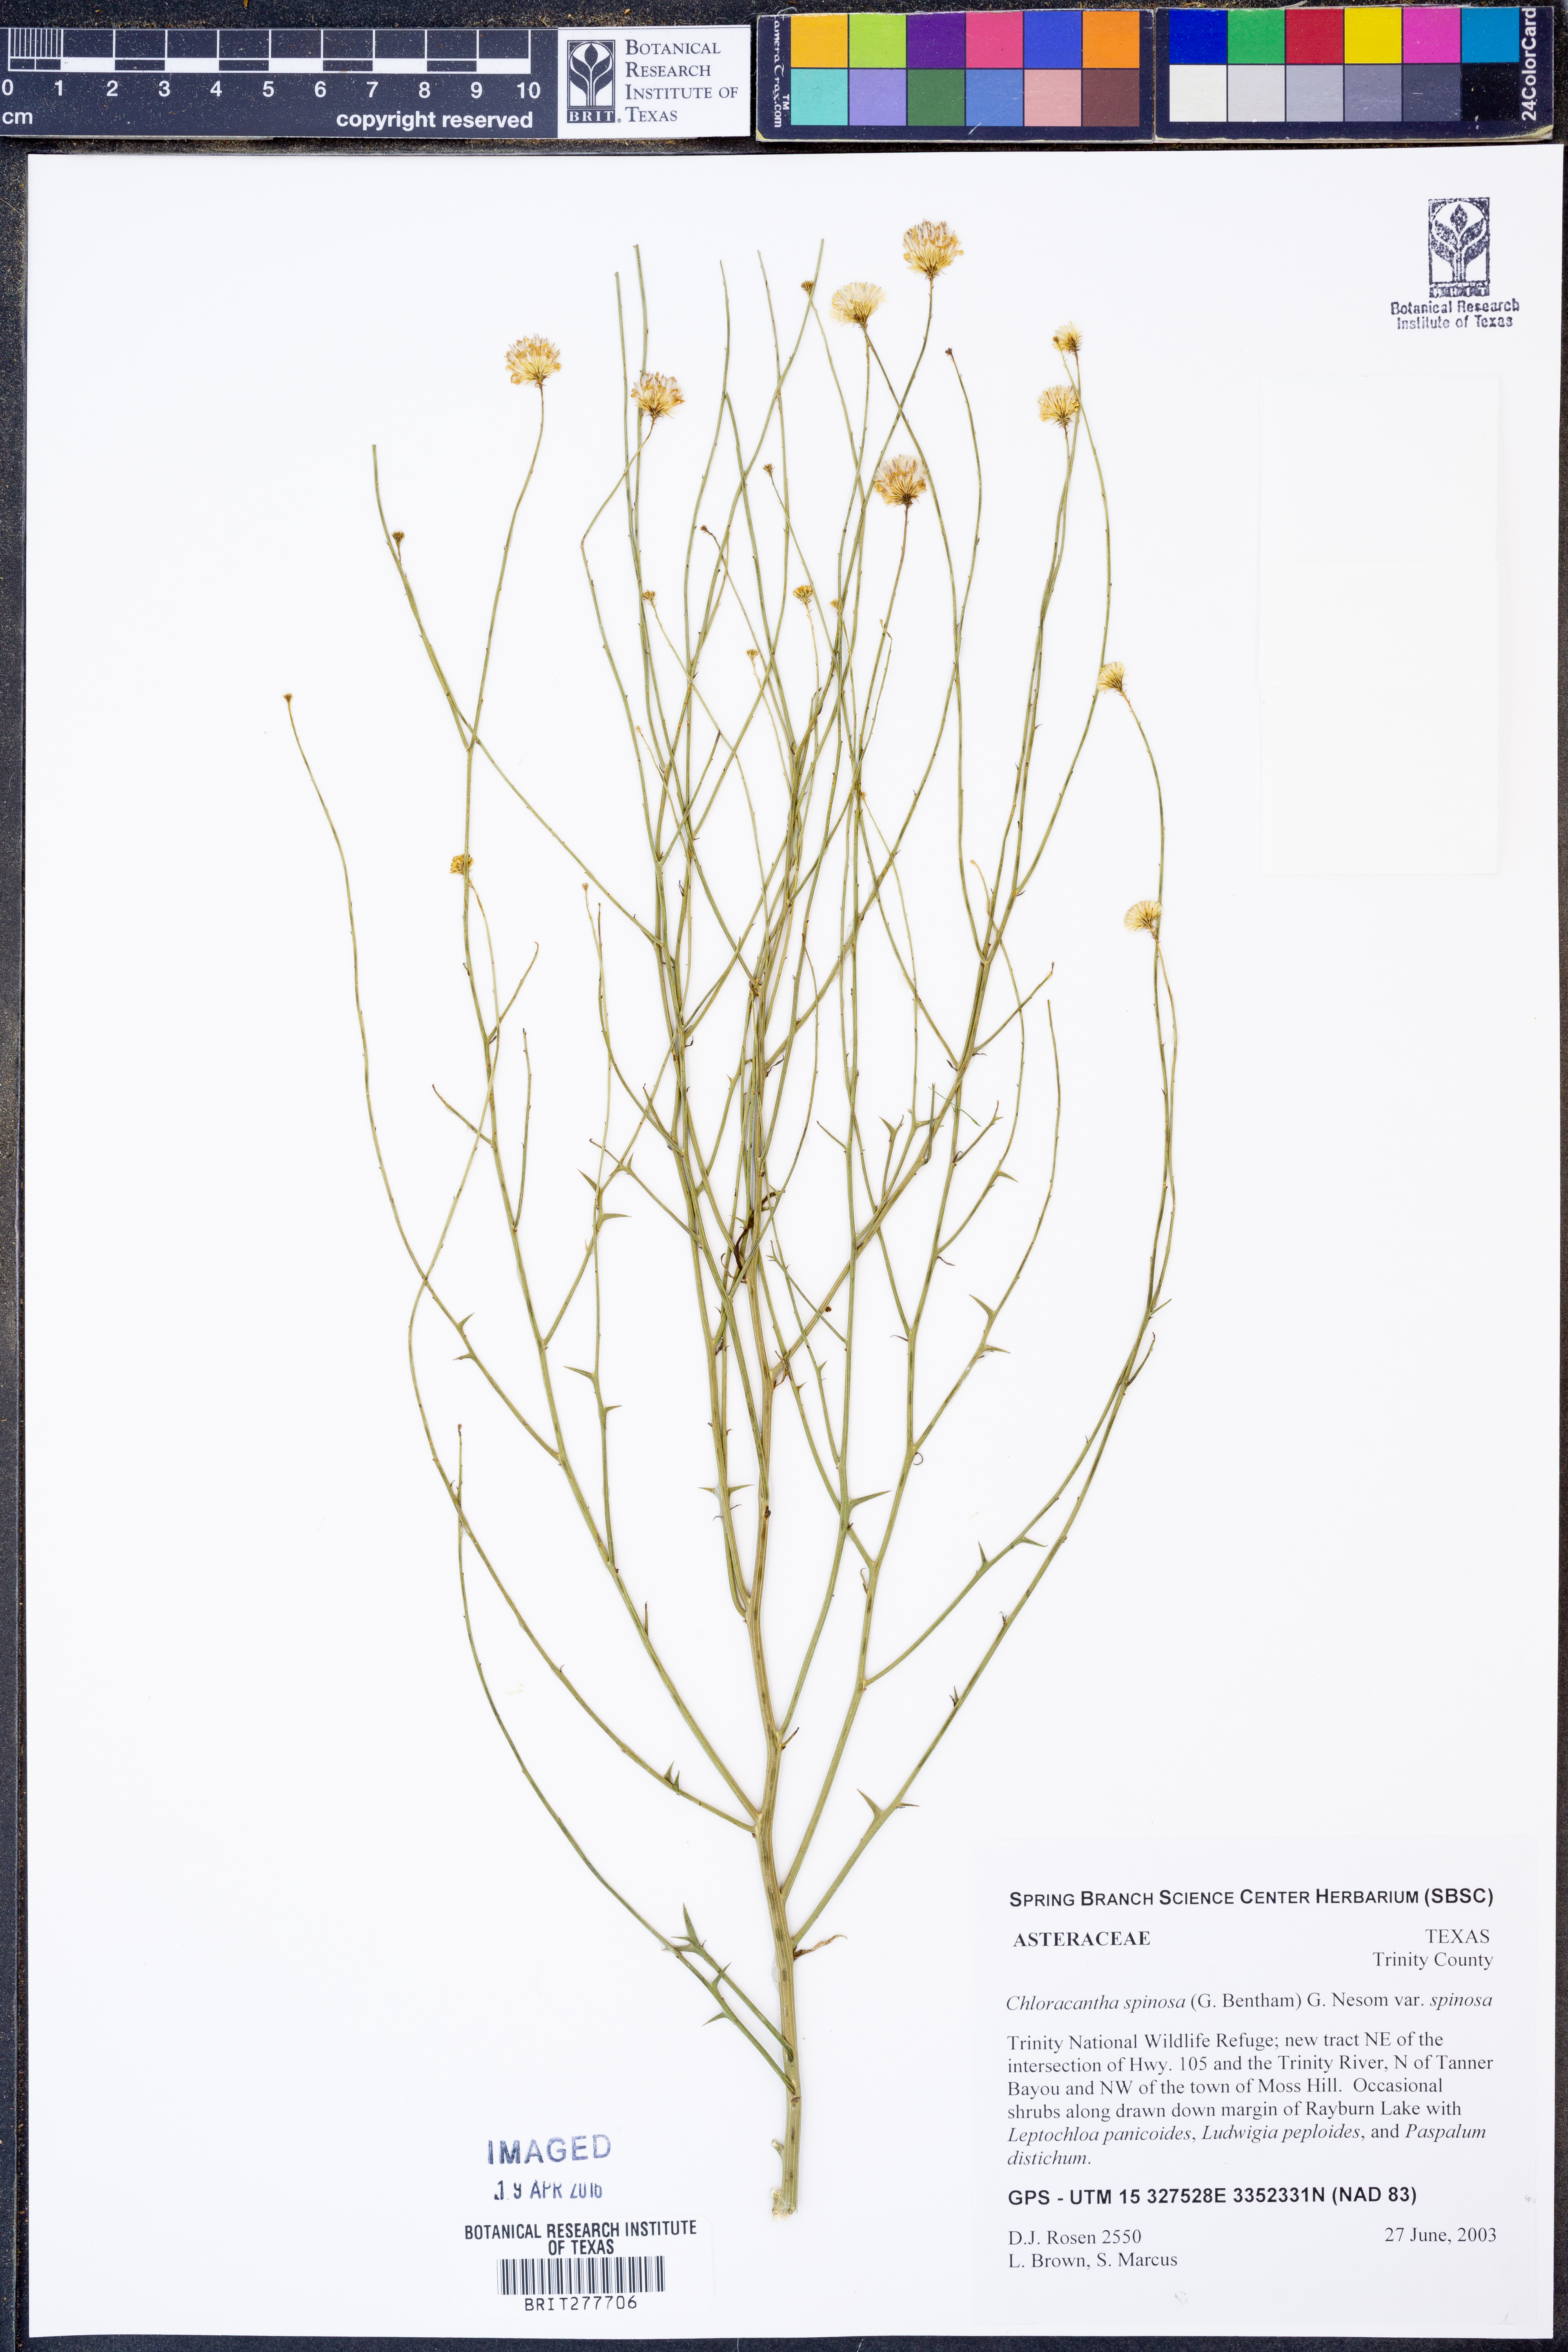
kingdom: Plantae
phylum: Tracheophyta
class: Magnoliopsida
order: Asterales
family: Asteraceae
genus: Chloracantha
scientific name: Chloracantha spinosa
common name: Mexican devilweed
